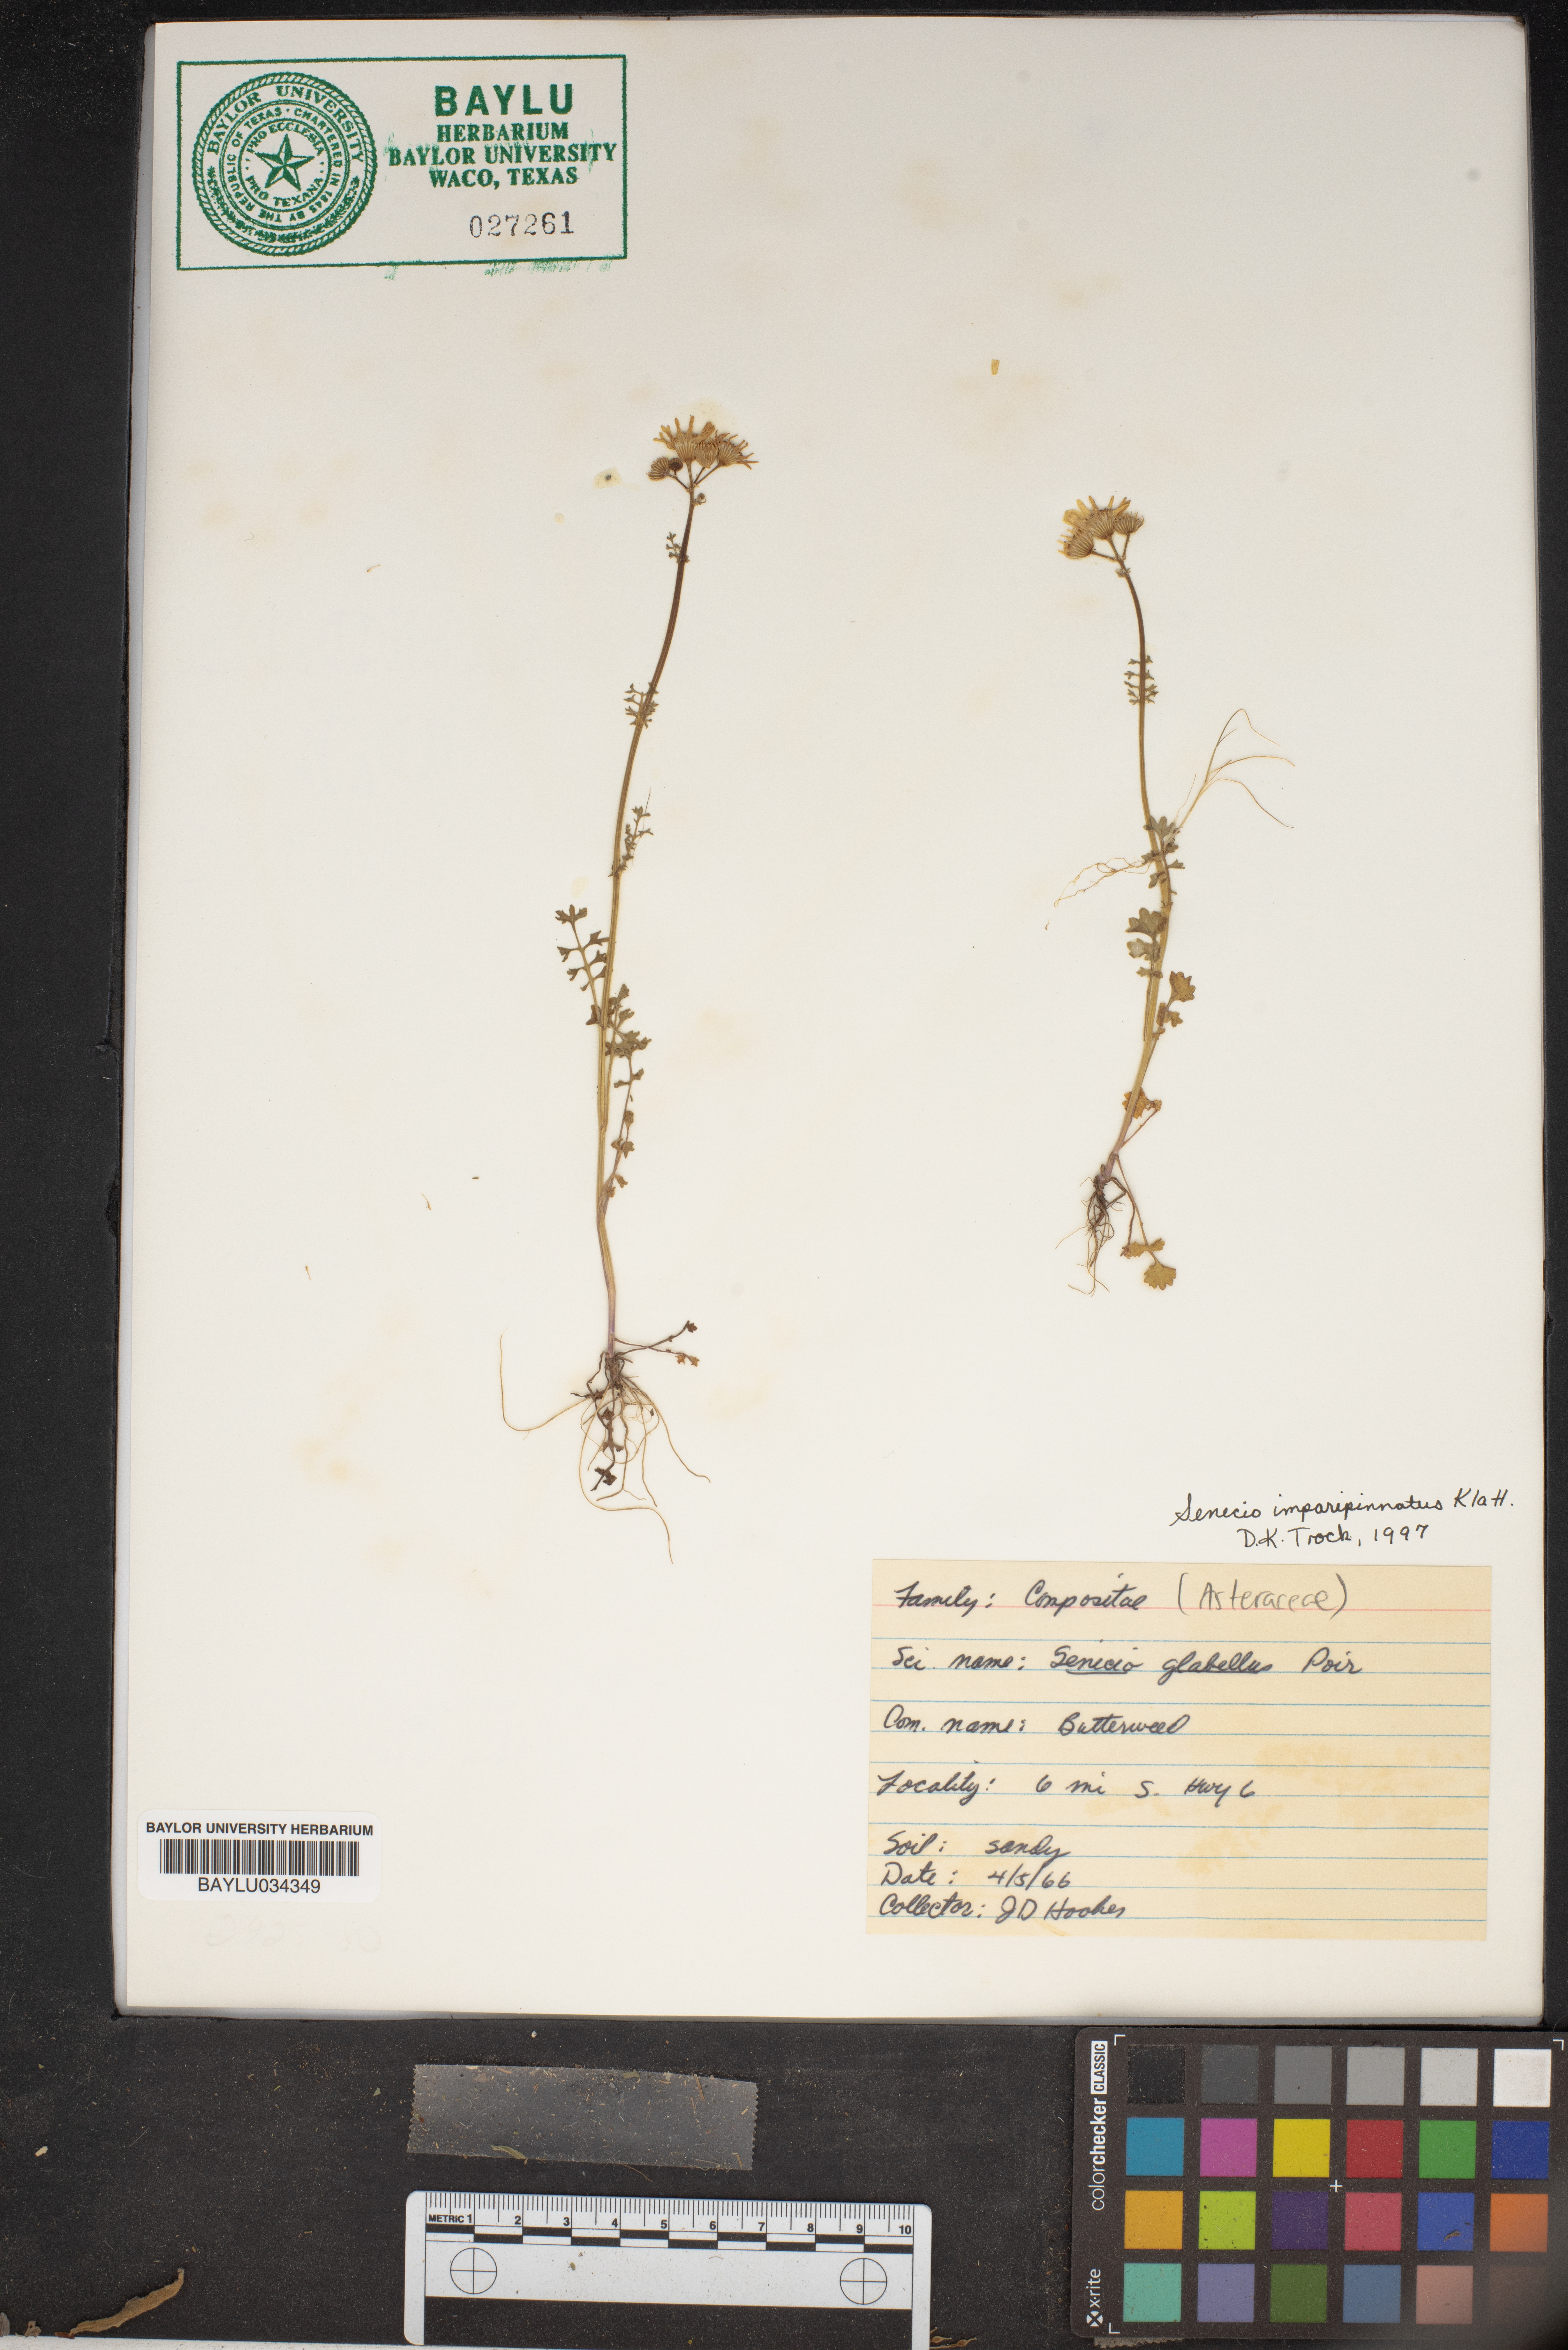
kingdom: Plantae
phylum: Tracheophyta
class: Magnoliopsida
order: Asterales
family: Asteraceae
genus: Packera
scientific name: Packera tampicana
